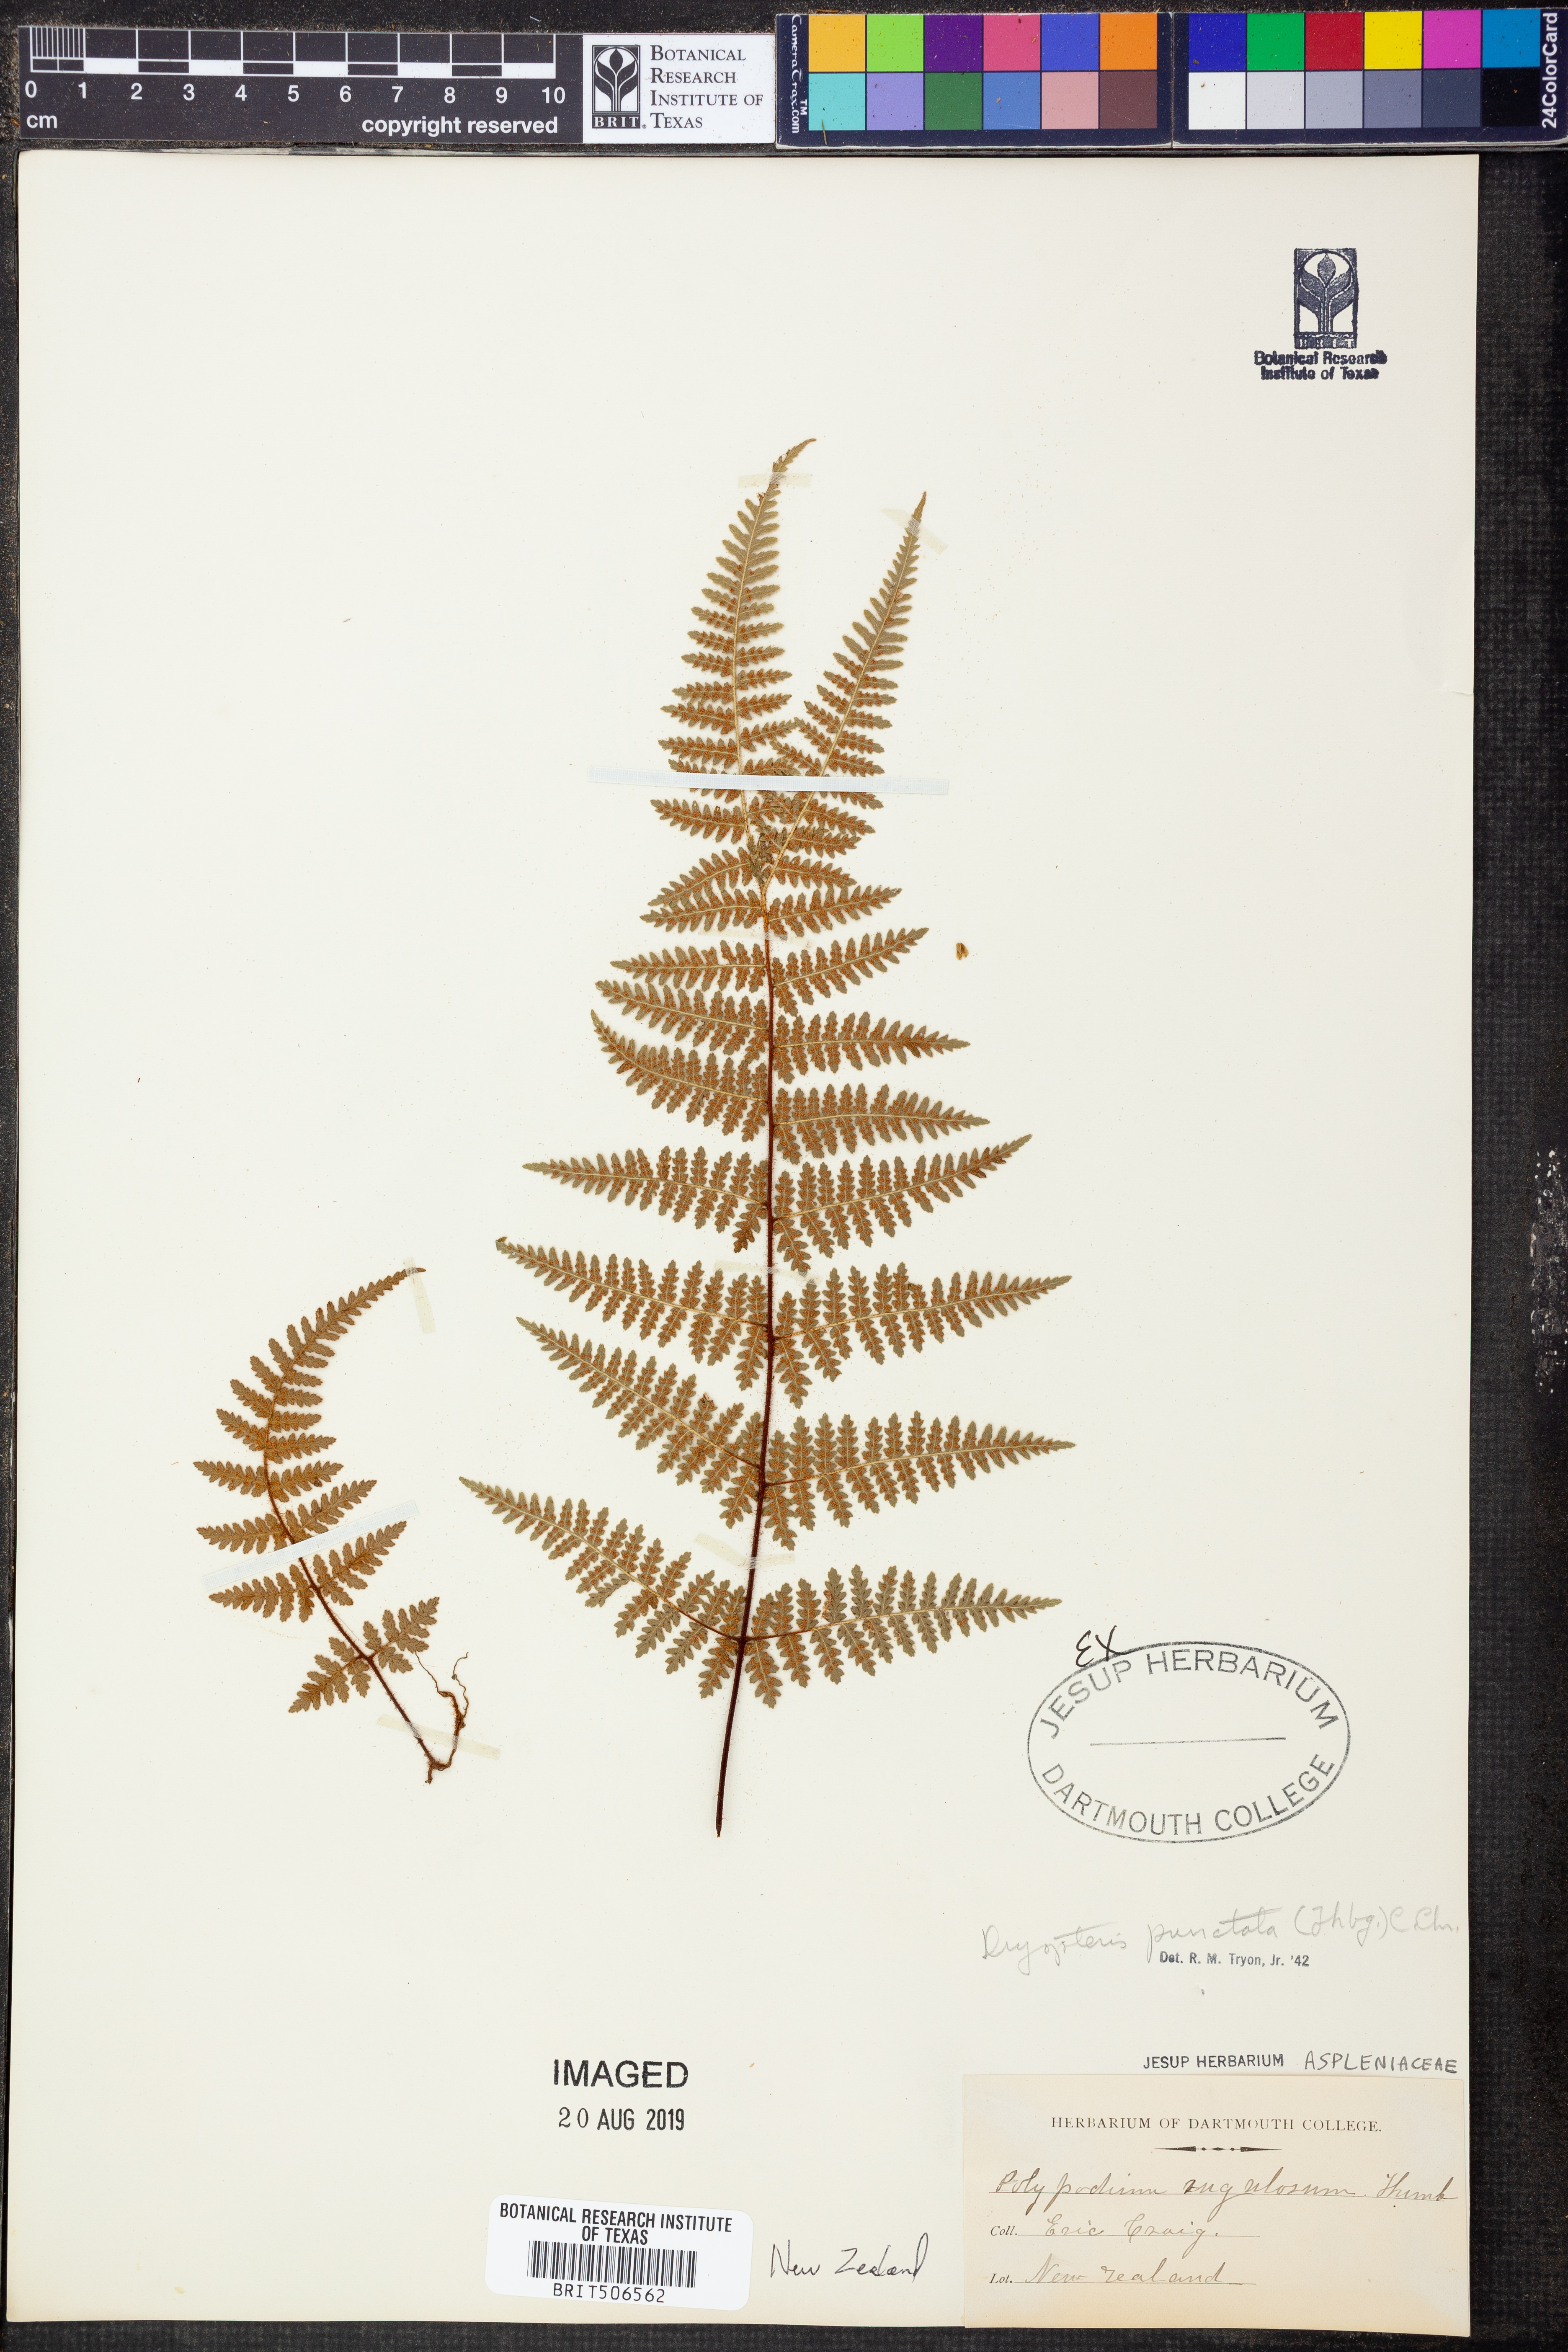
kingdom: Plantae
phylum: Tracheophyta
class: Polypodiopsida
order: Polypodiales
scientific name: Polypodiales
